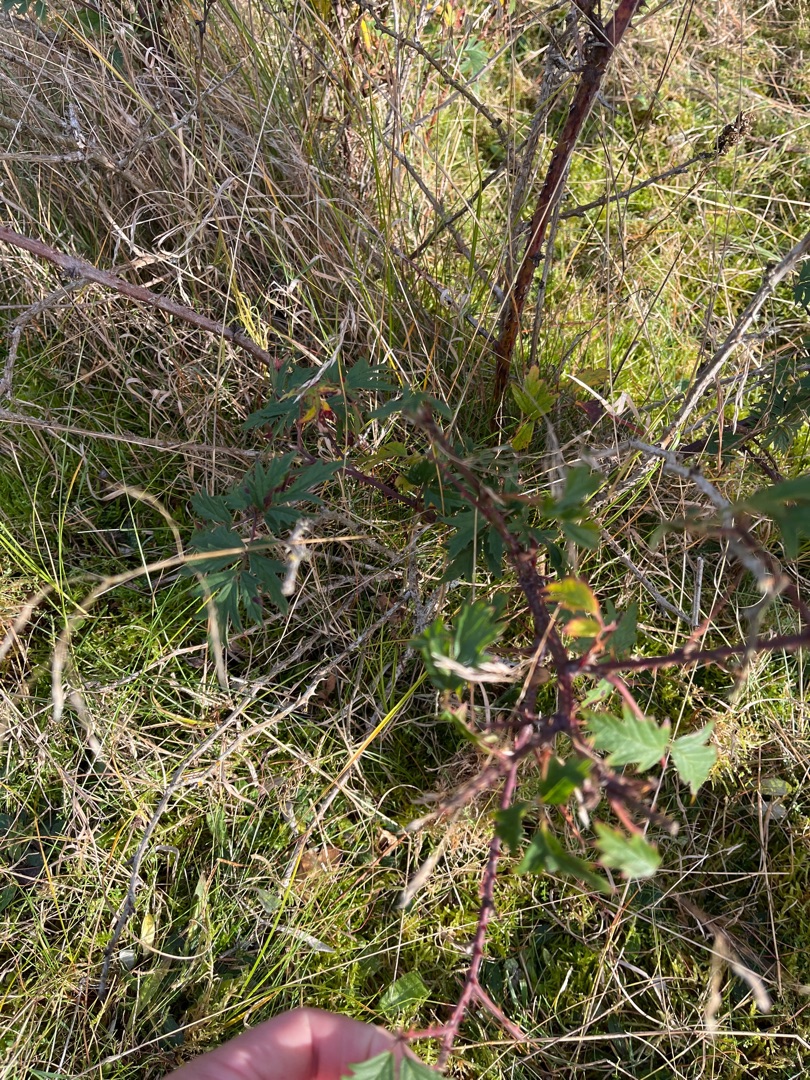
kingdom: Plantae
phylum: Tracheophyta
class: Magnoliopsida
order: Rosales
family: Rosaceae
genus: Rubus
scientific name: Rubus laciniatus
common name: Fliget brombær
